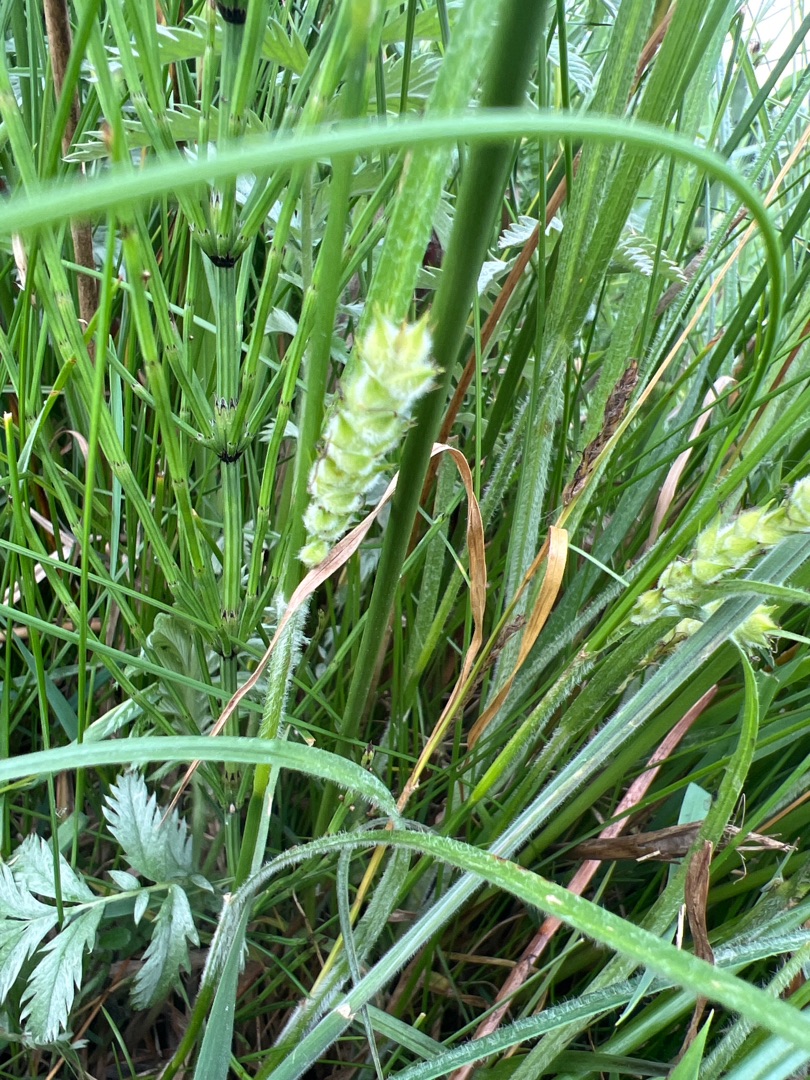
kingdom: Plantae
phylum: Tracheophyta
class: Liliopsida
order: Poales
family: Cyperaceae
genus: Carex
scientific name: Carex hirta
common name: Håret star
